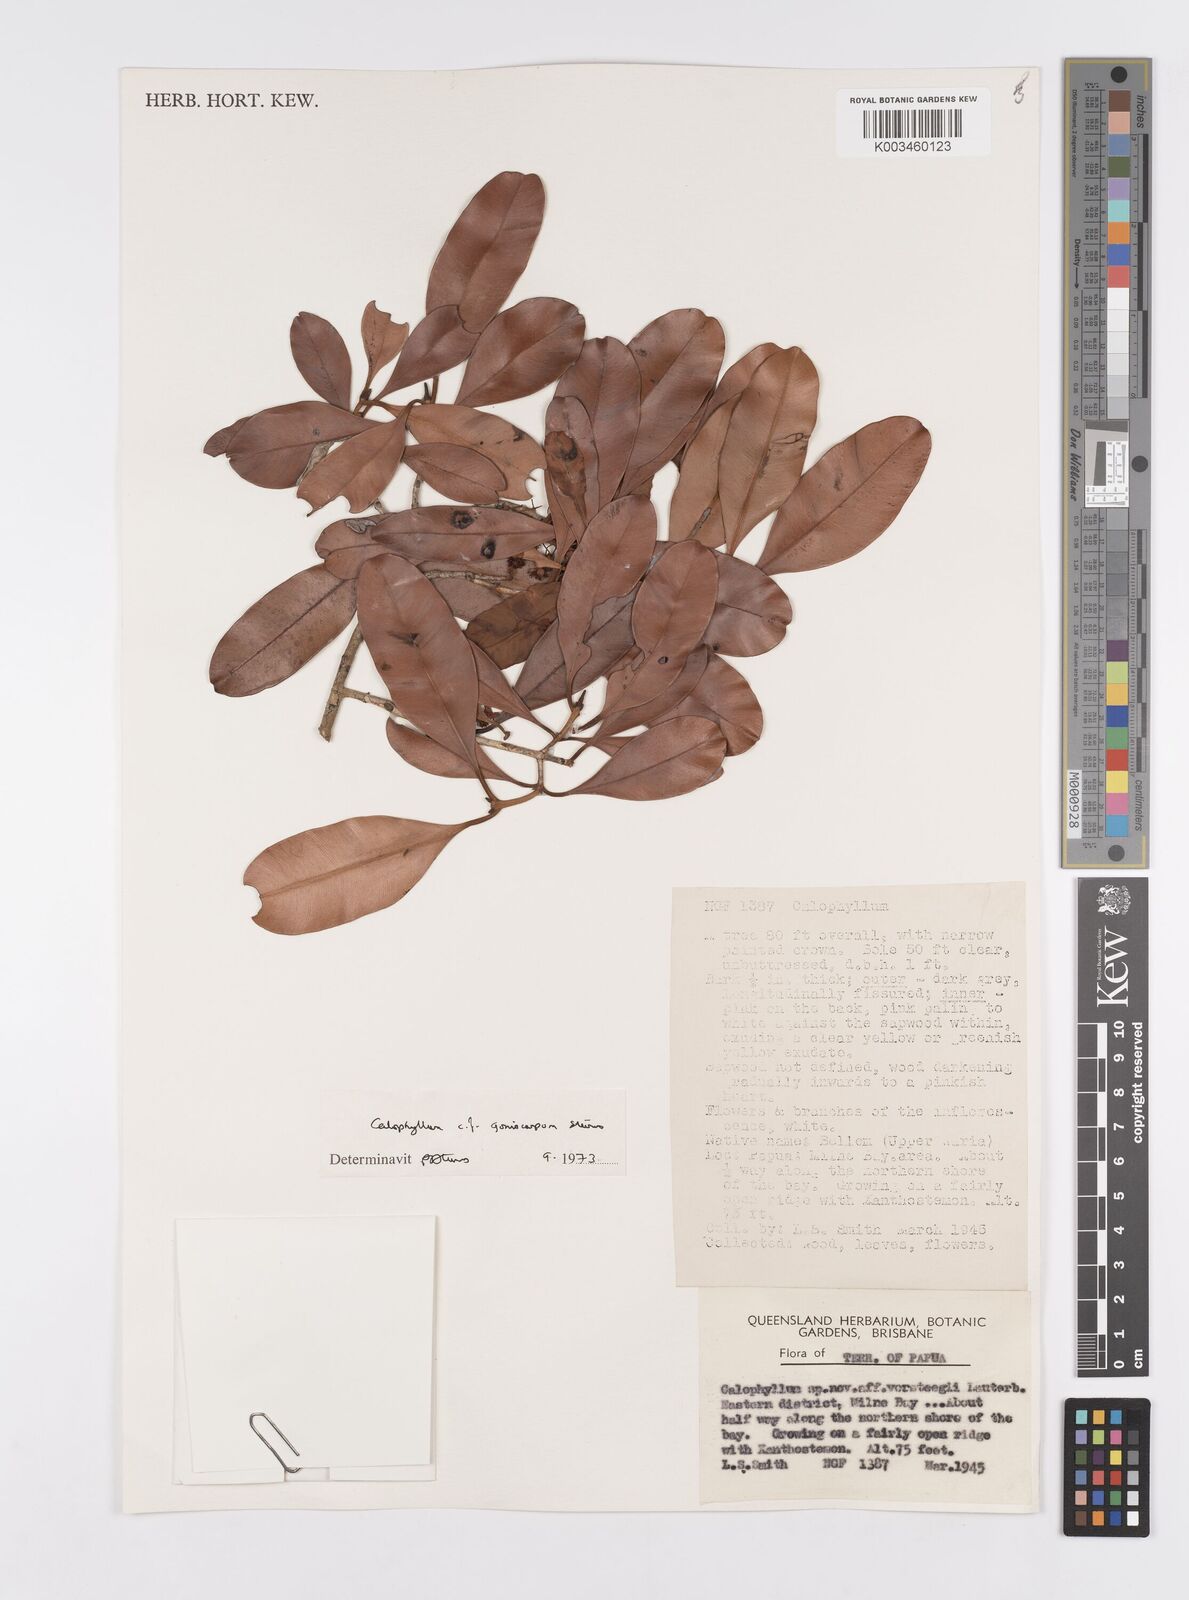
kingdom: Plantae
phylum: Tracheophyta
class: Magnoliopsida
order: Malpighiales
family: Calophyllaceae
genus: Calophyllum
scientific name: Calophyllum goniocarpum
